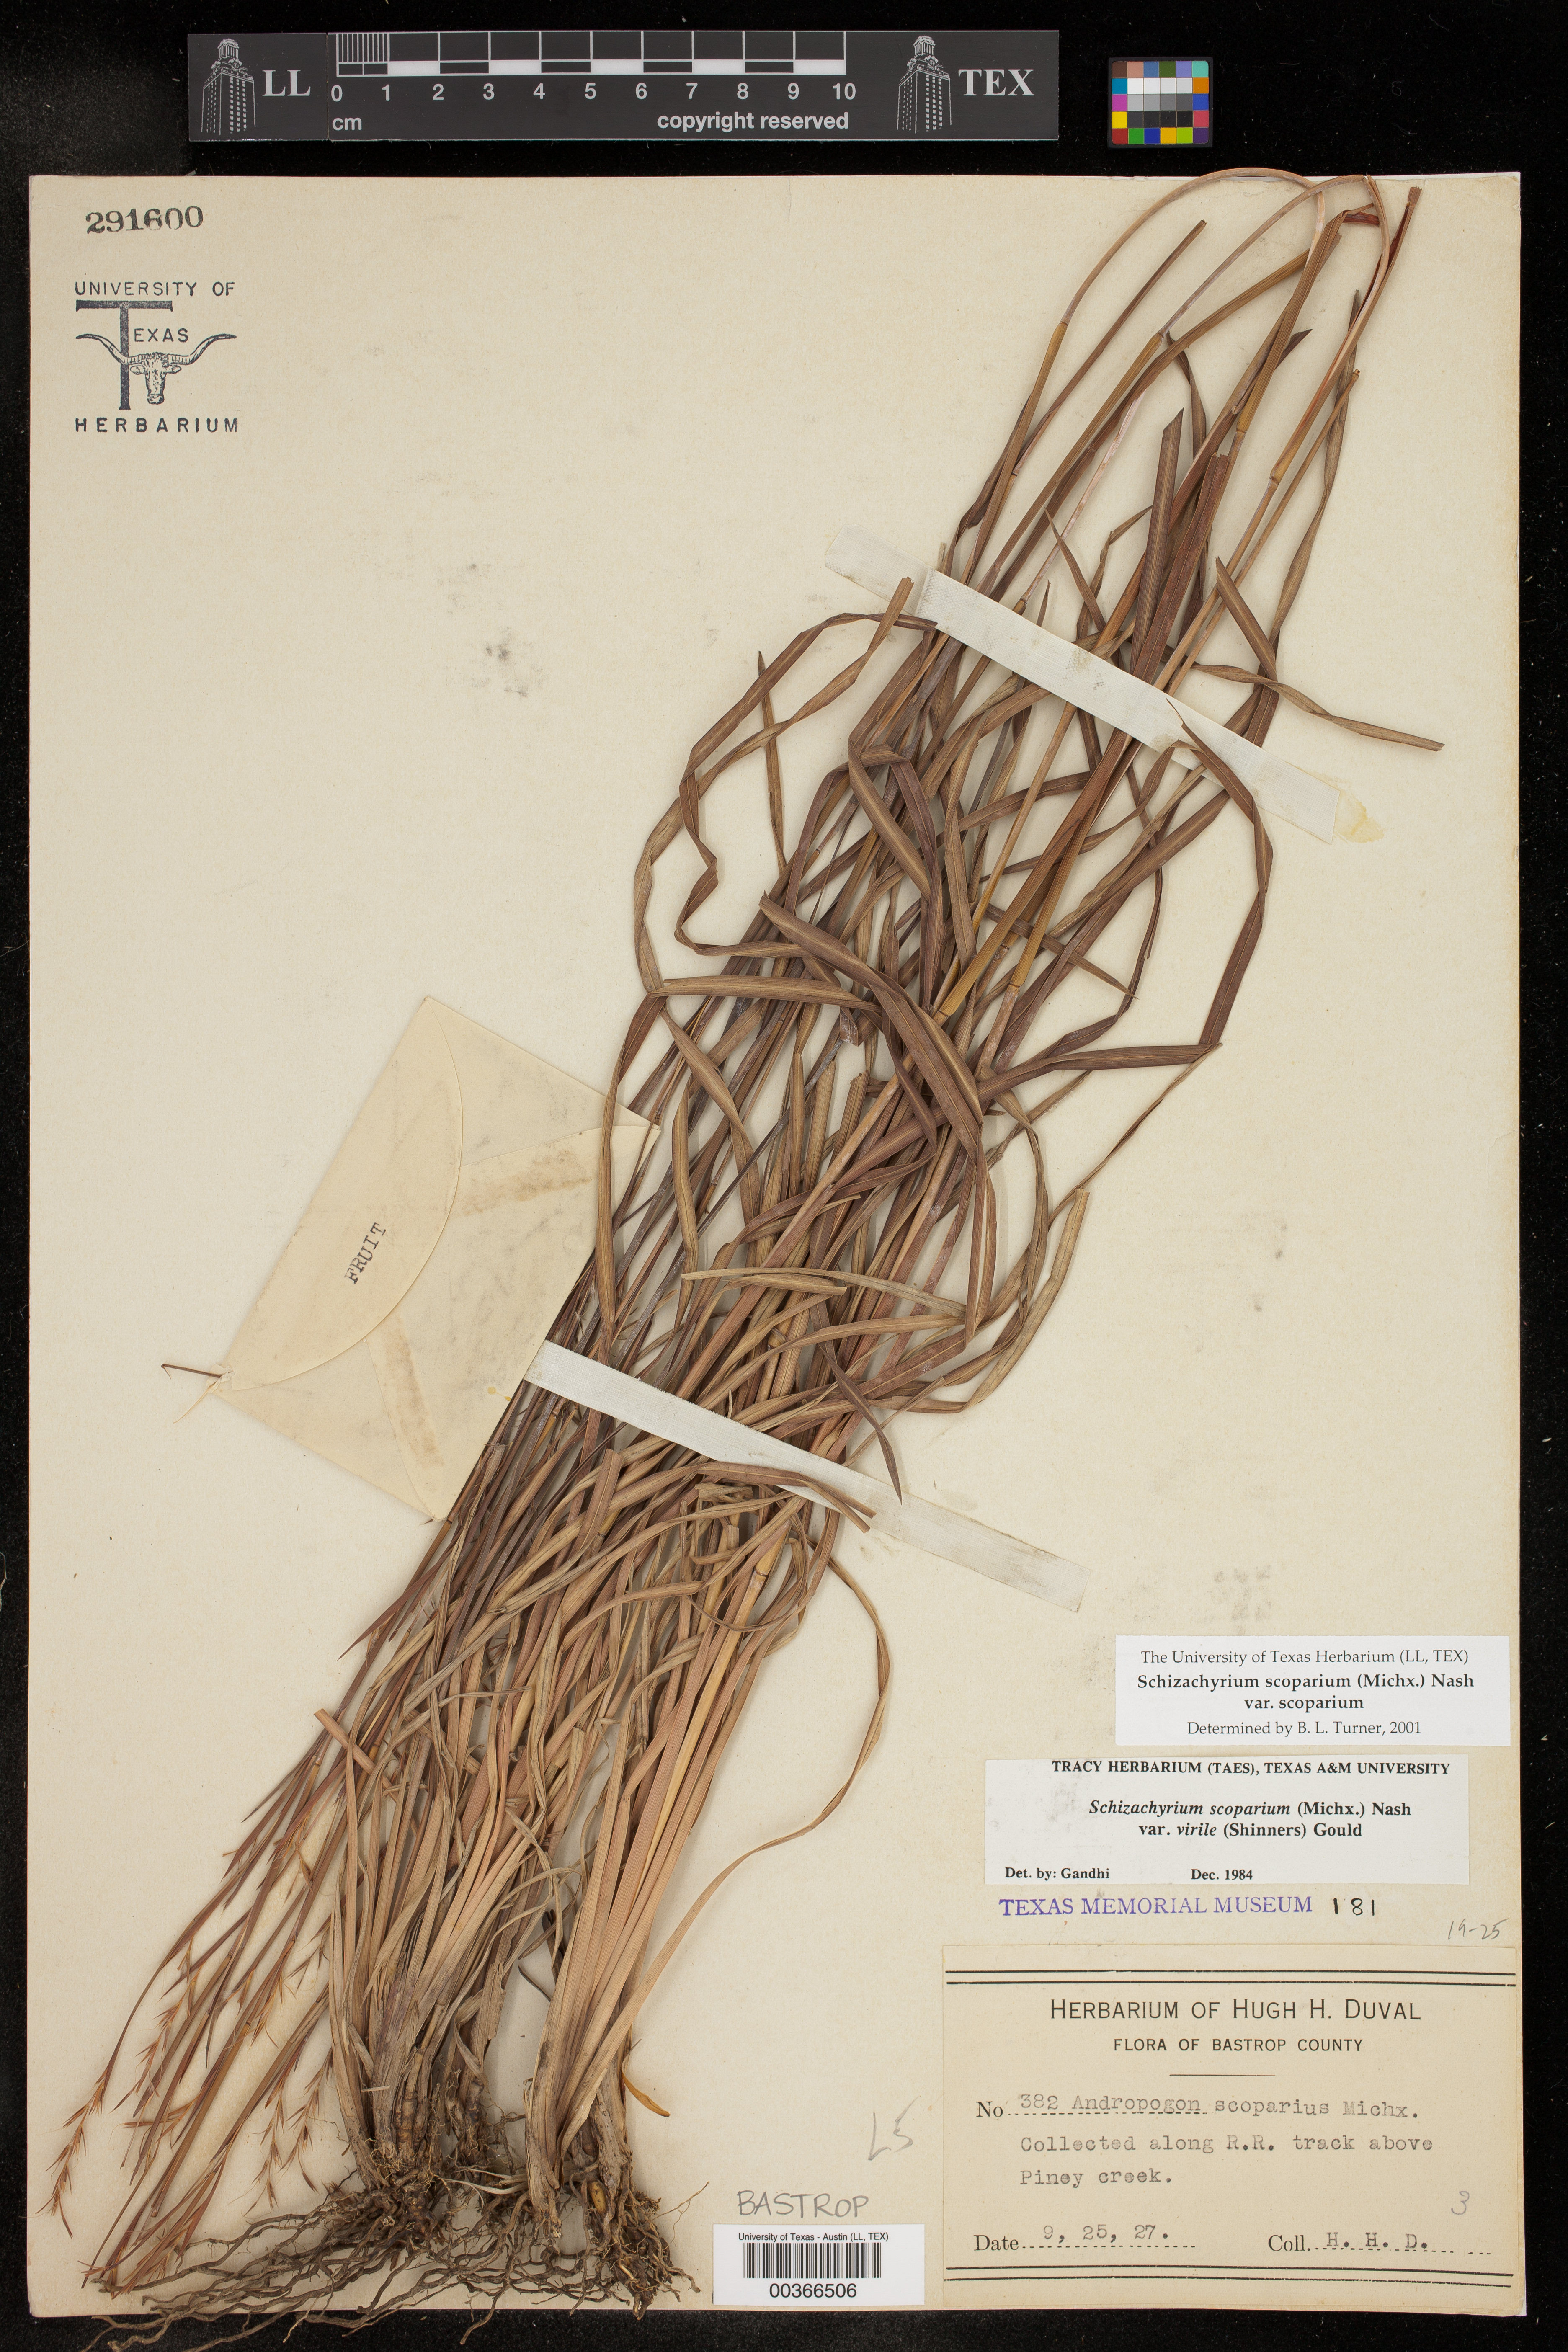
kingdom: Plantae
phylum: Tracheophyta
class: Liliopsida
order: Poales
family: Poaceae
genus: Schizachyrium
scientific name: Schizachyrium scoparium
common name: Little bluestem
